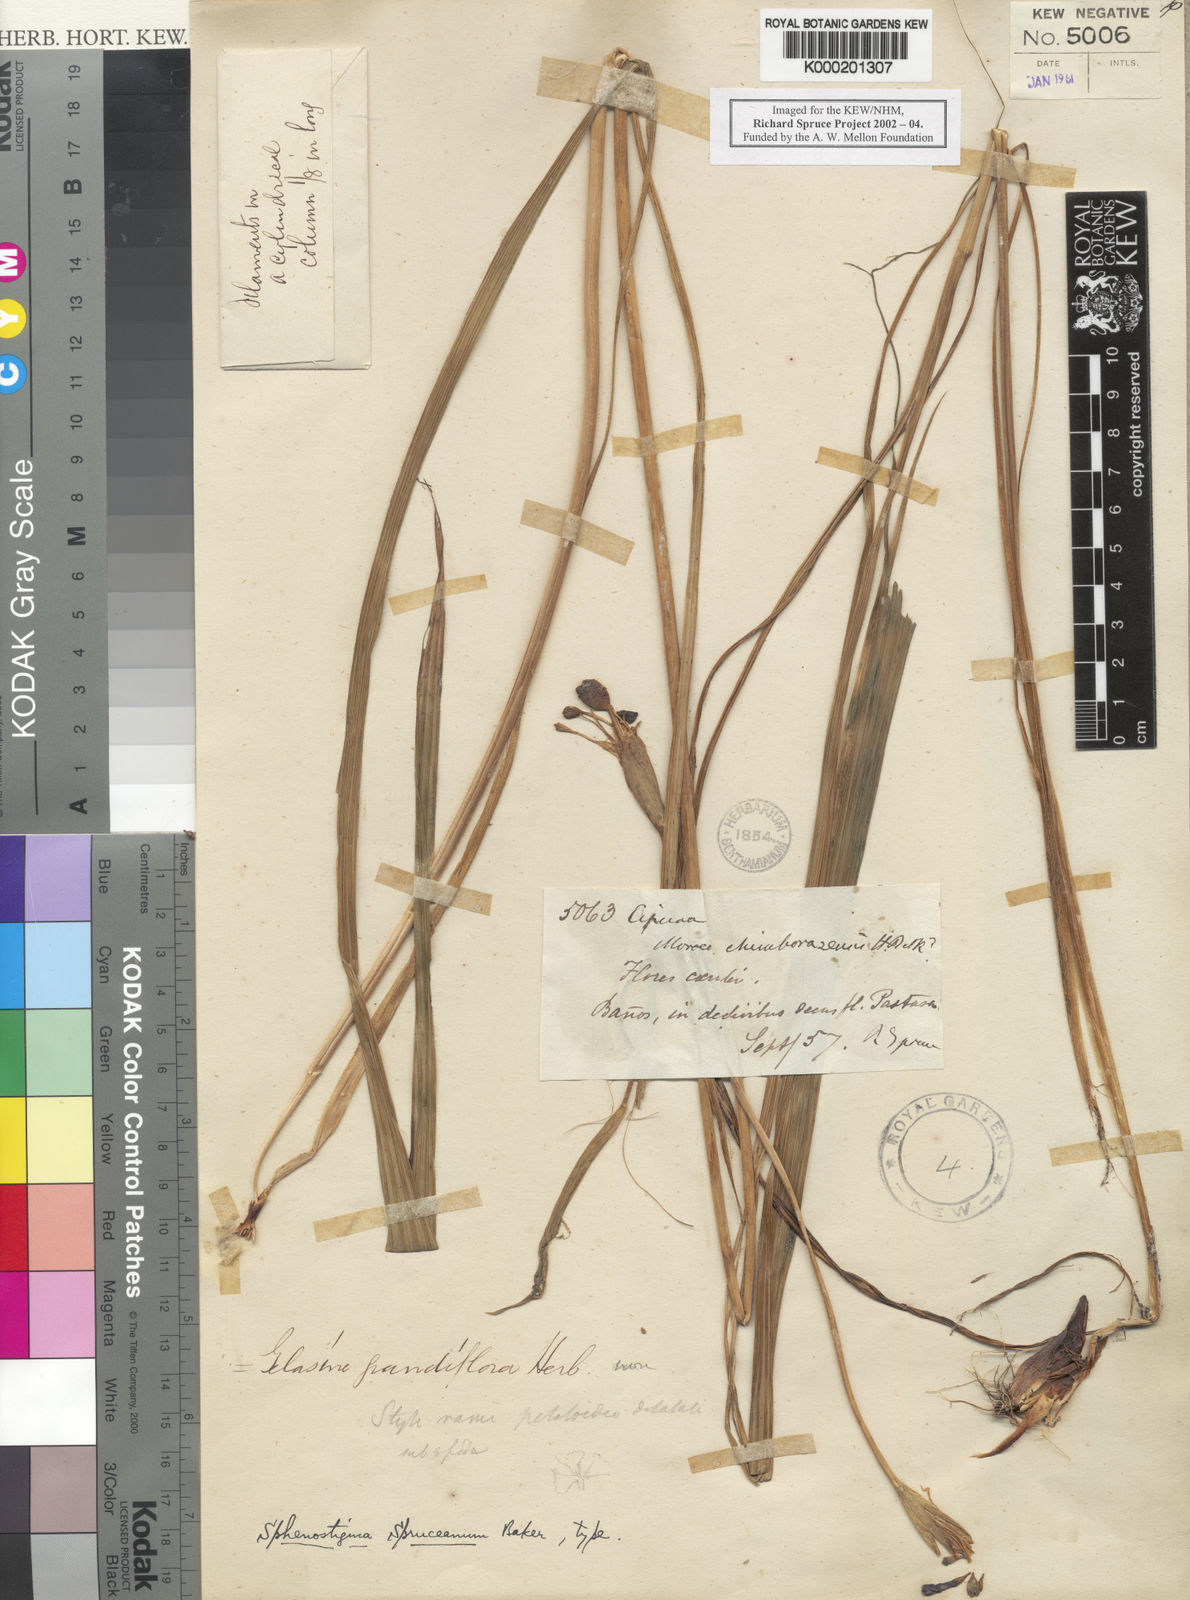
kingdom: Plantae
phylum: Tracheophyta
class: Liliopsida
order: Asparagales
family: Iridaceae
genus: Ennealophus
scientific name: Ennealophus foliosus
